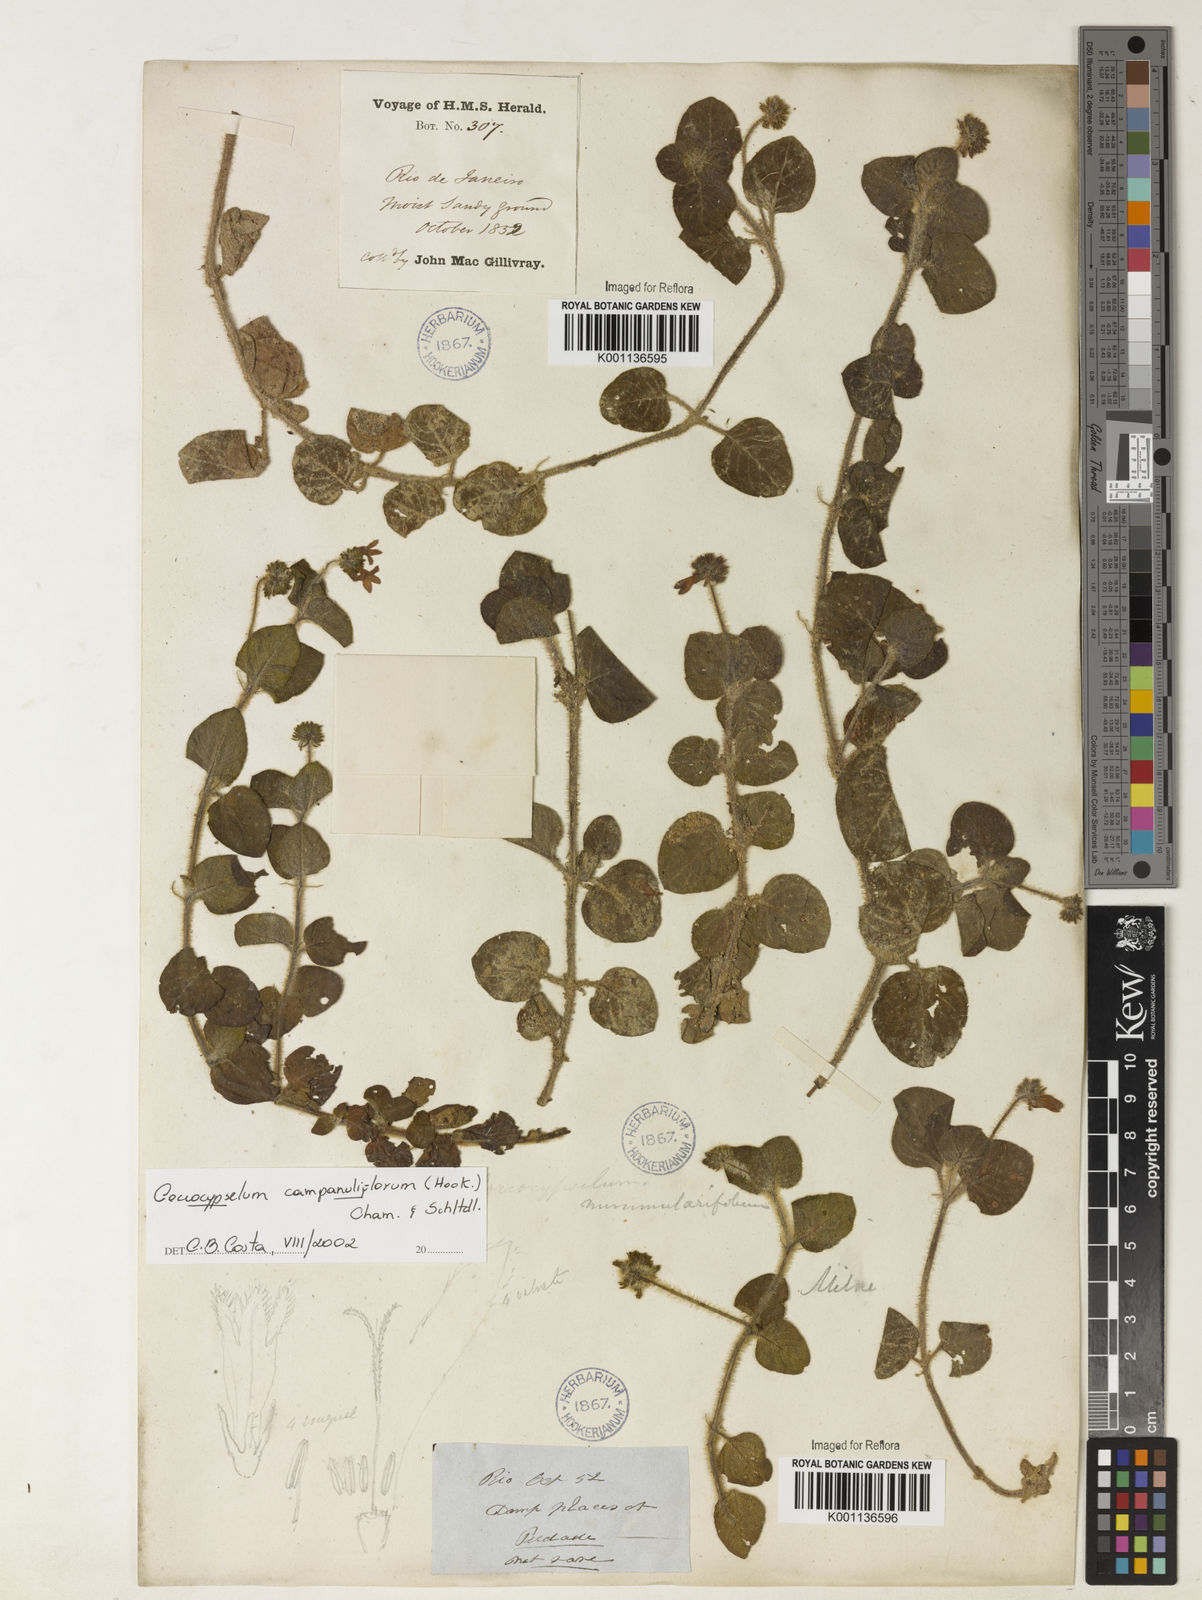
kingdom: Plantae
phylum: Tracheophyta
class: Magnoliopsida
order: Gentianales
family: Rubiaceae
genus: Coccocypselum
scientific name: Coccocypselum capitatum
